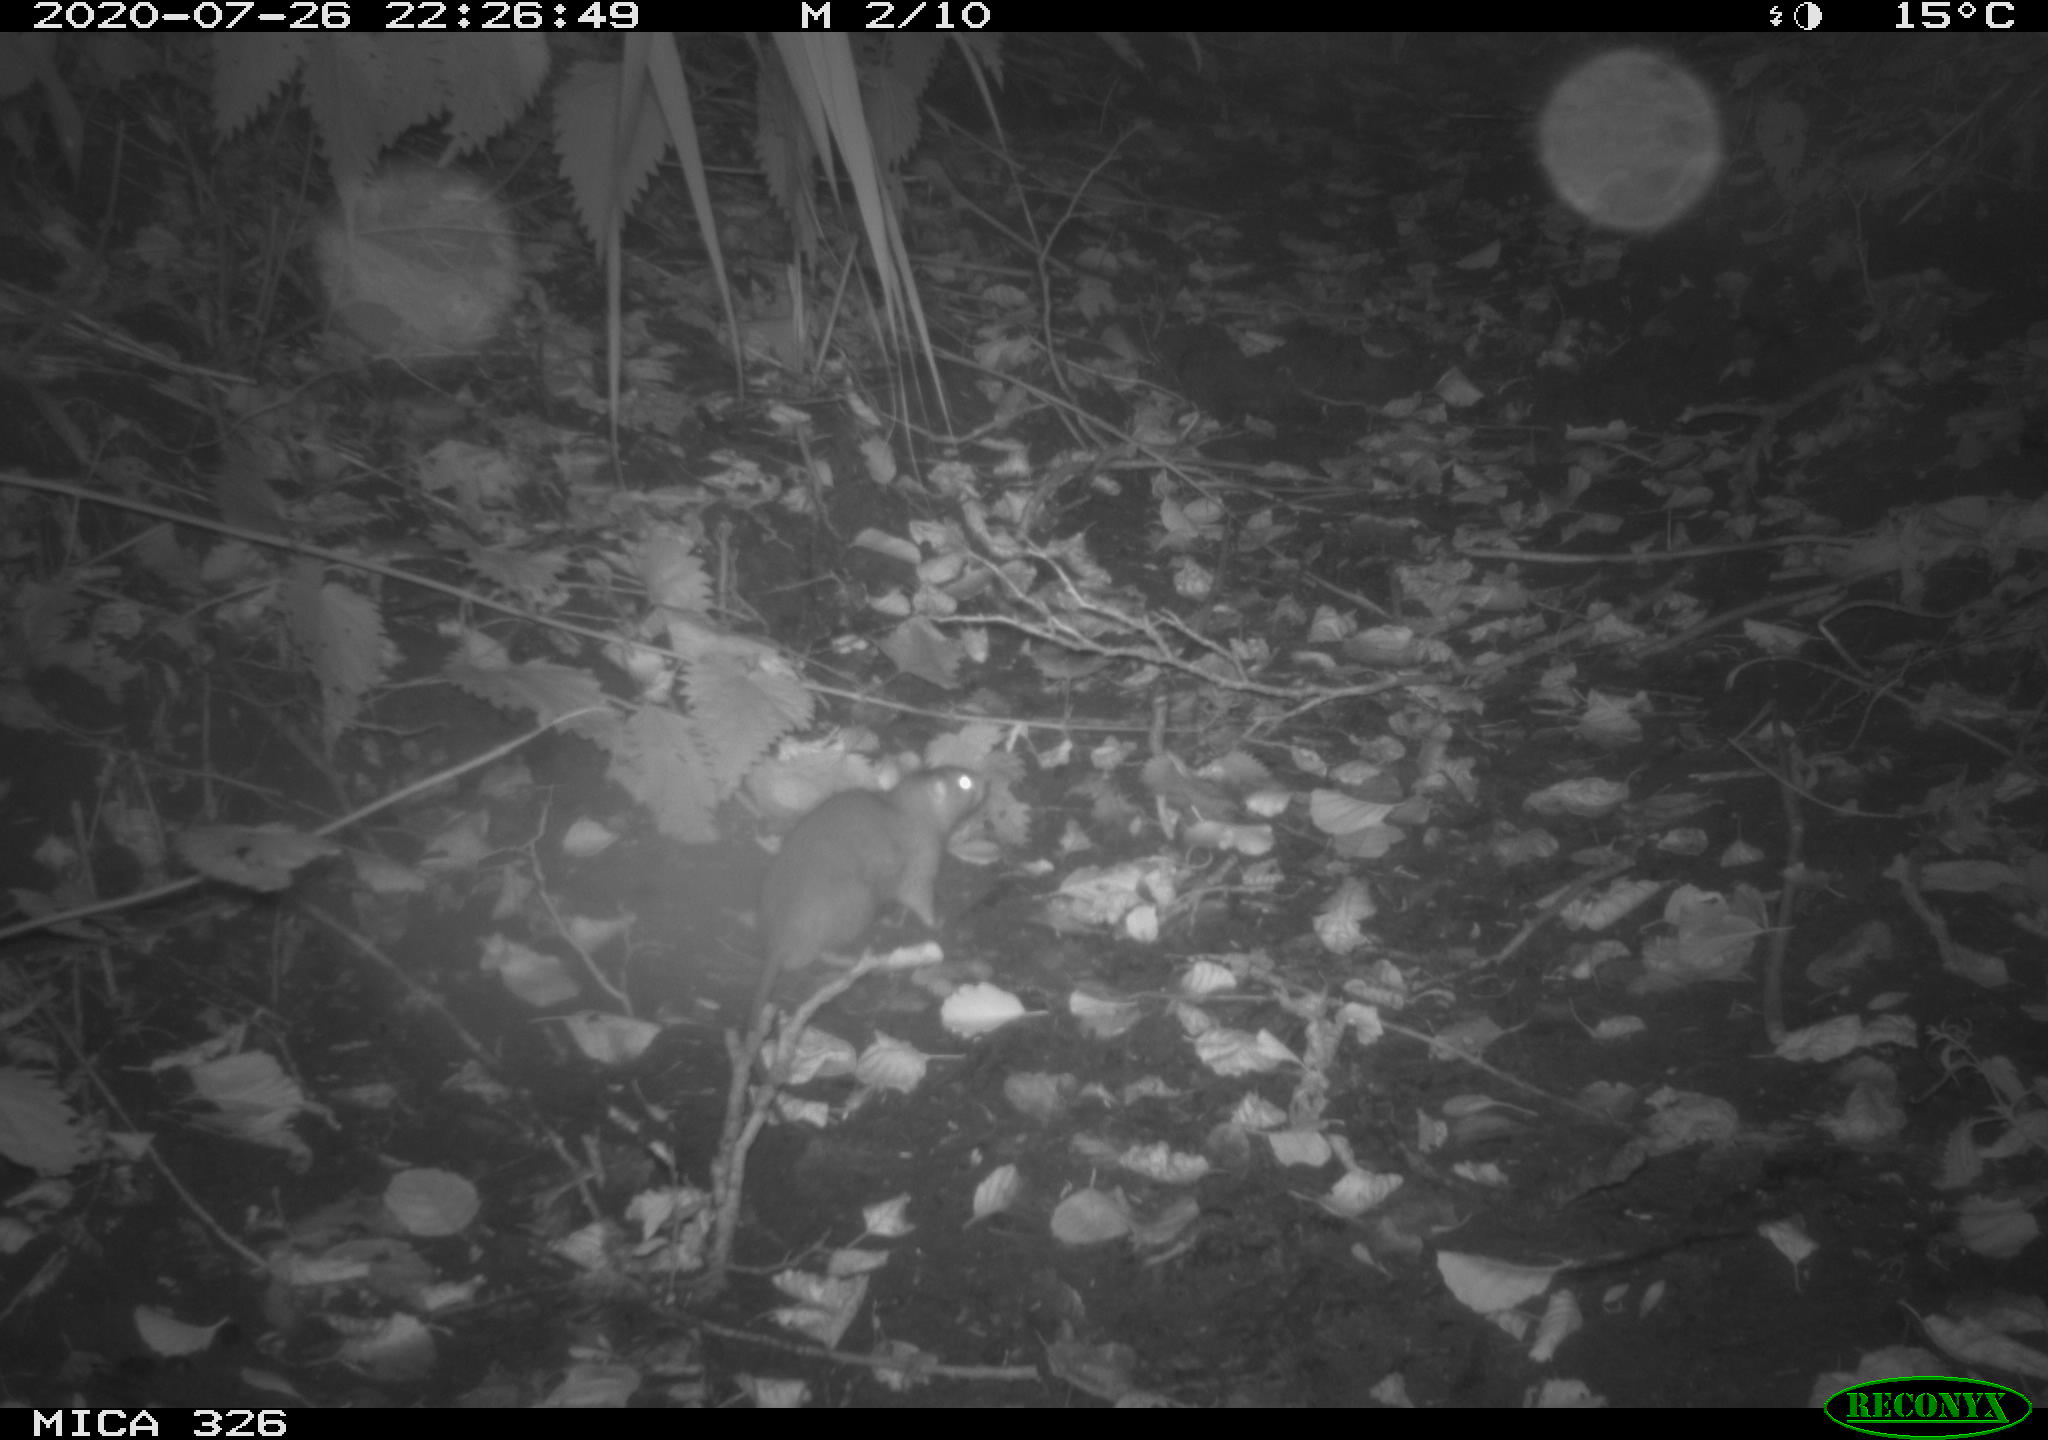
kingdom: Animalia
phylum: Chordata
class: Mammalia
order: Rodentia
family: Muridae
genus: Rattus
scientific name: Rattus norvegicus
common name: Brown rat
